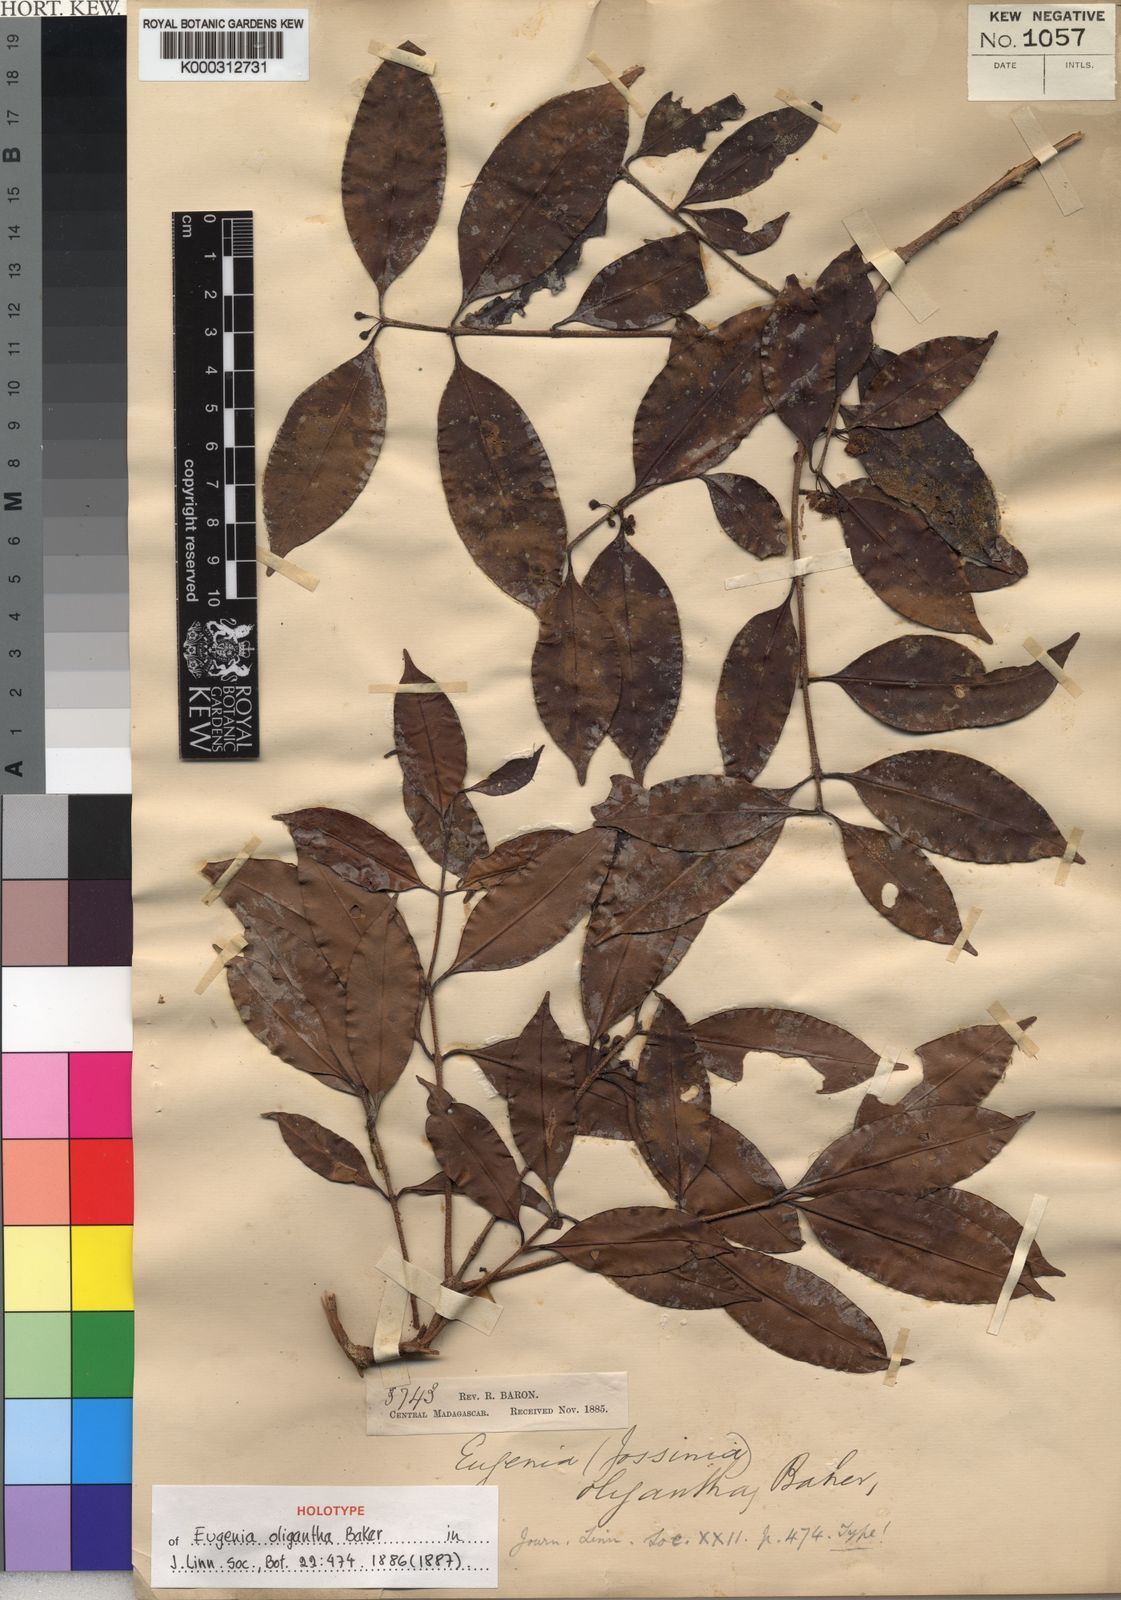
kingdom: Plantae
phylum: Tracheophyta
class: Magnoliopsida
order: Myrtales
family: Myrtaceae
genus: Eugenia
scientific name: Eugenia zygophylla
